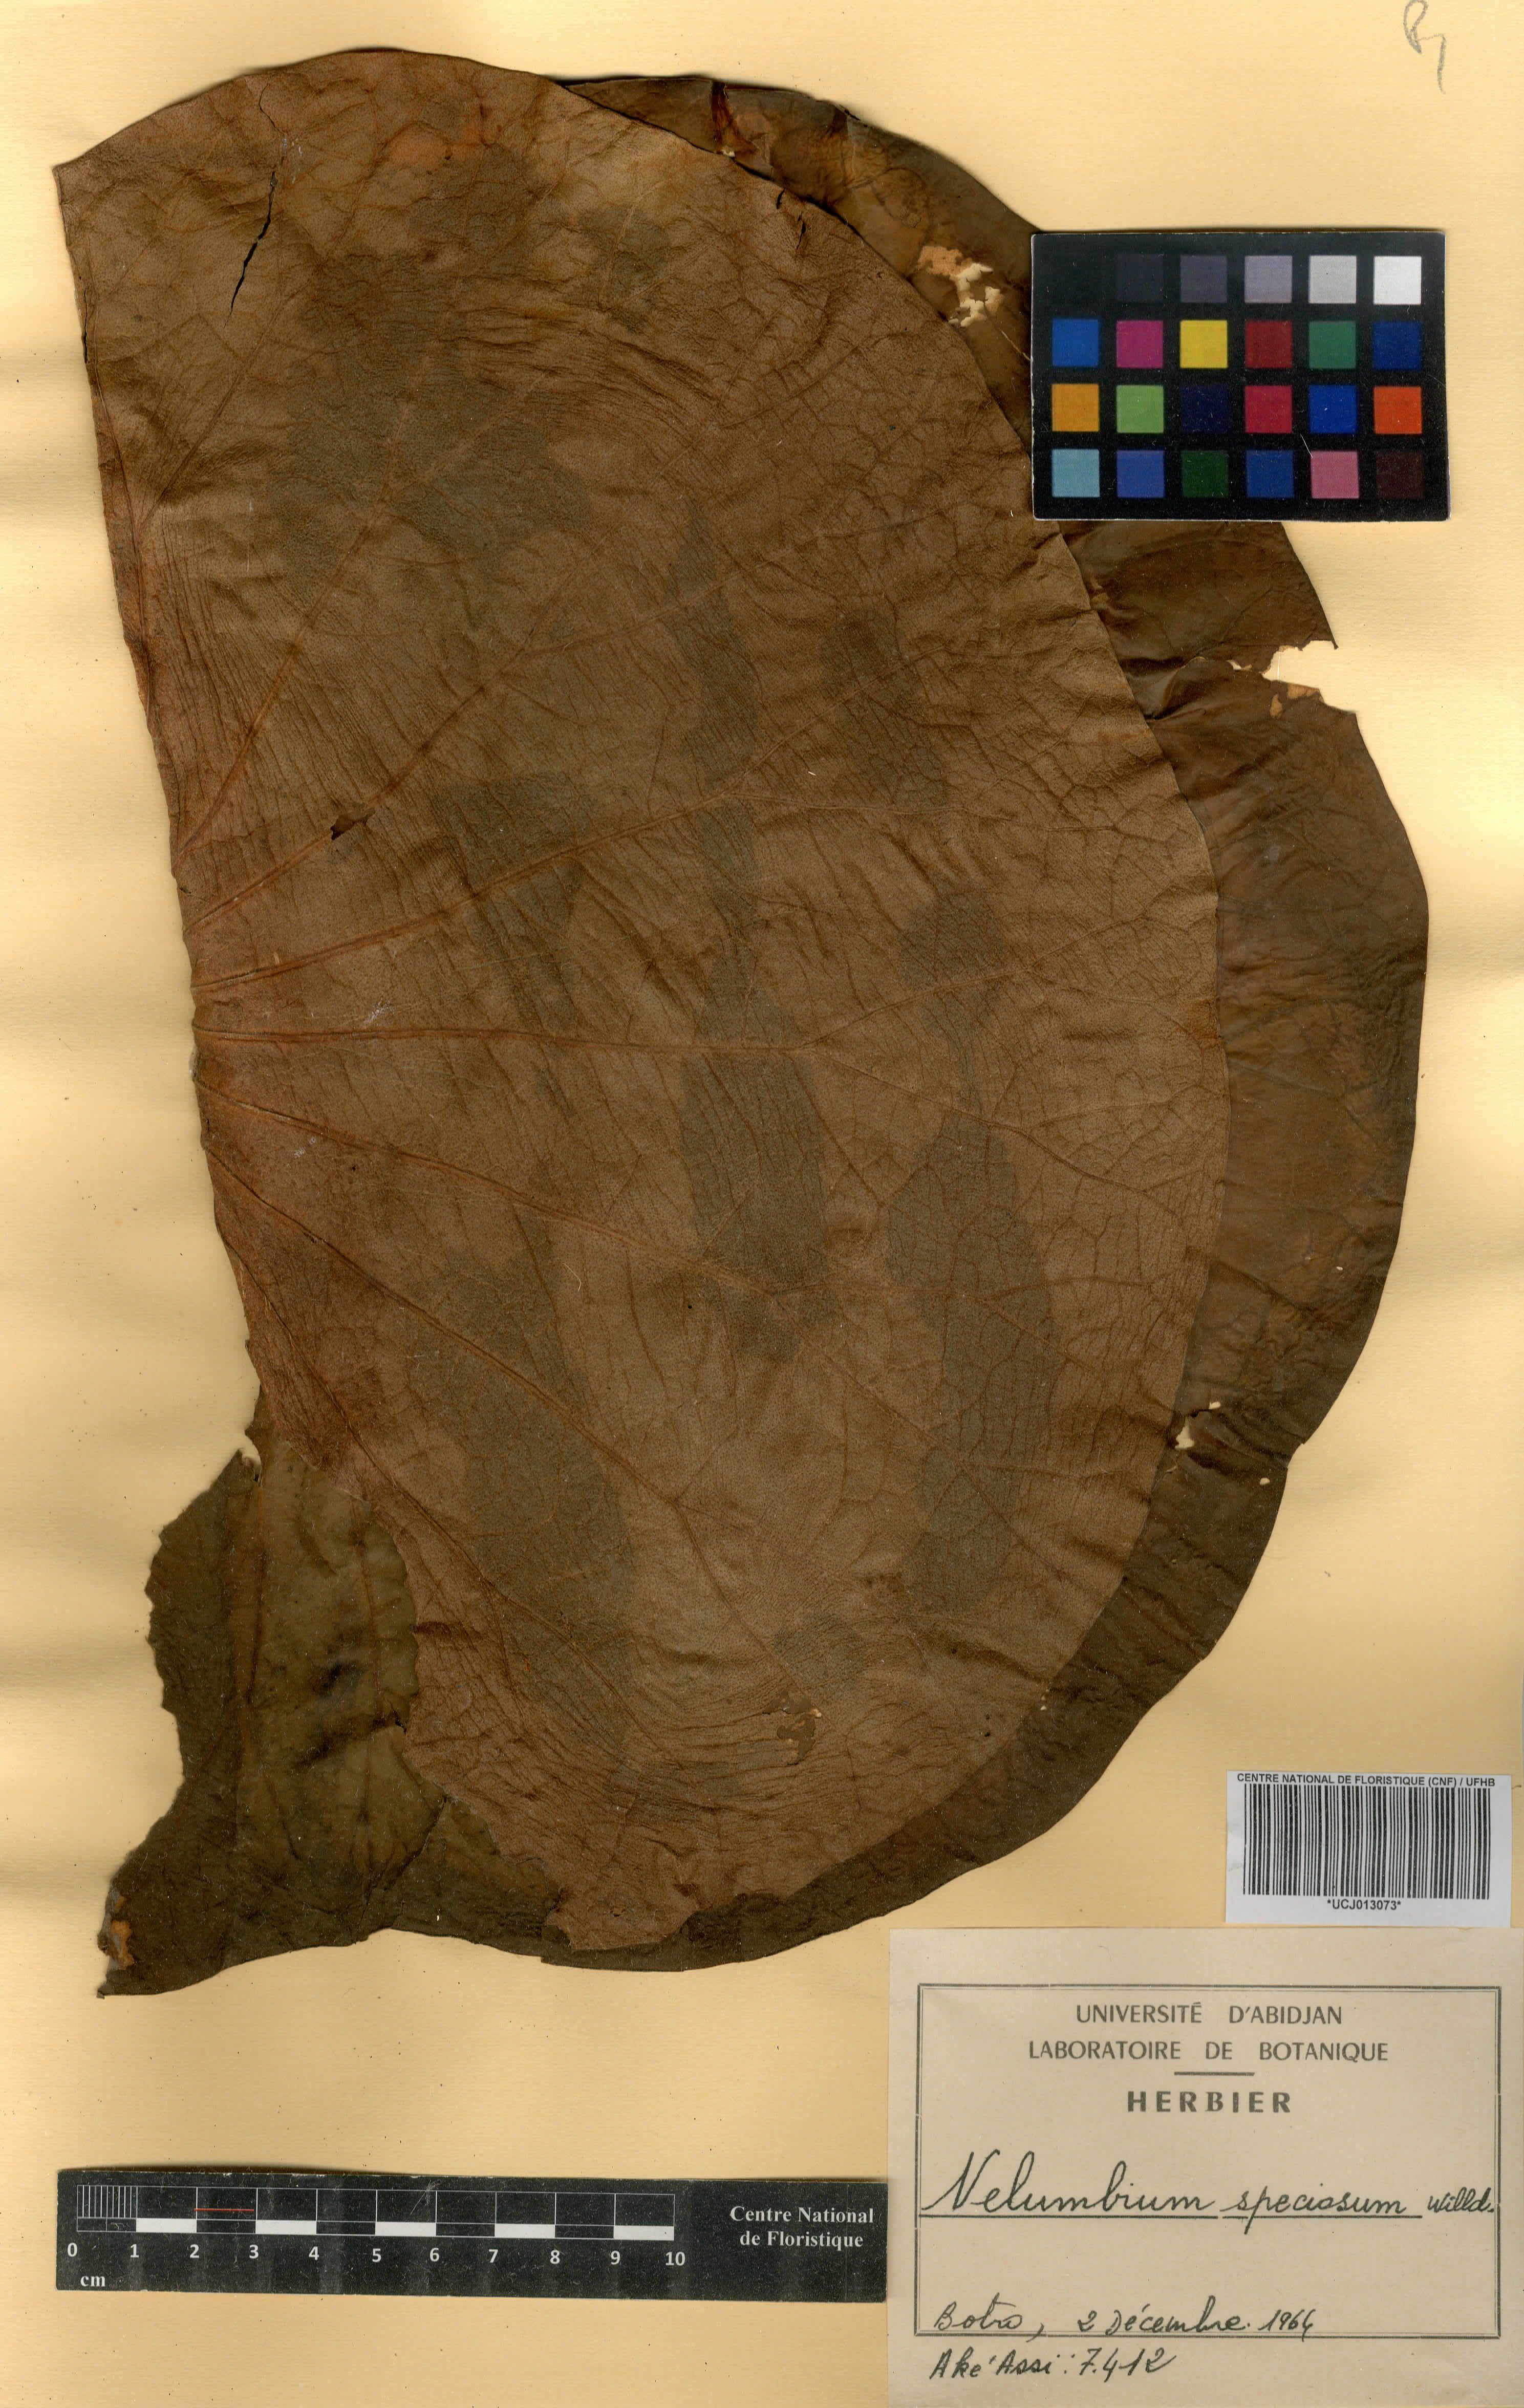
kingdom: Plantae
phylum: Tracheophyta
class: Magnoliopsida
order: Proteales
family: Nelumbonaceae
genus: Nelumbo
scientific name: Nelumbo nucifera
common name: Sacred lotus
